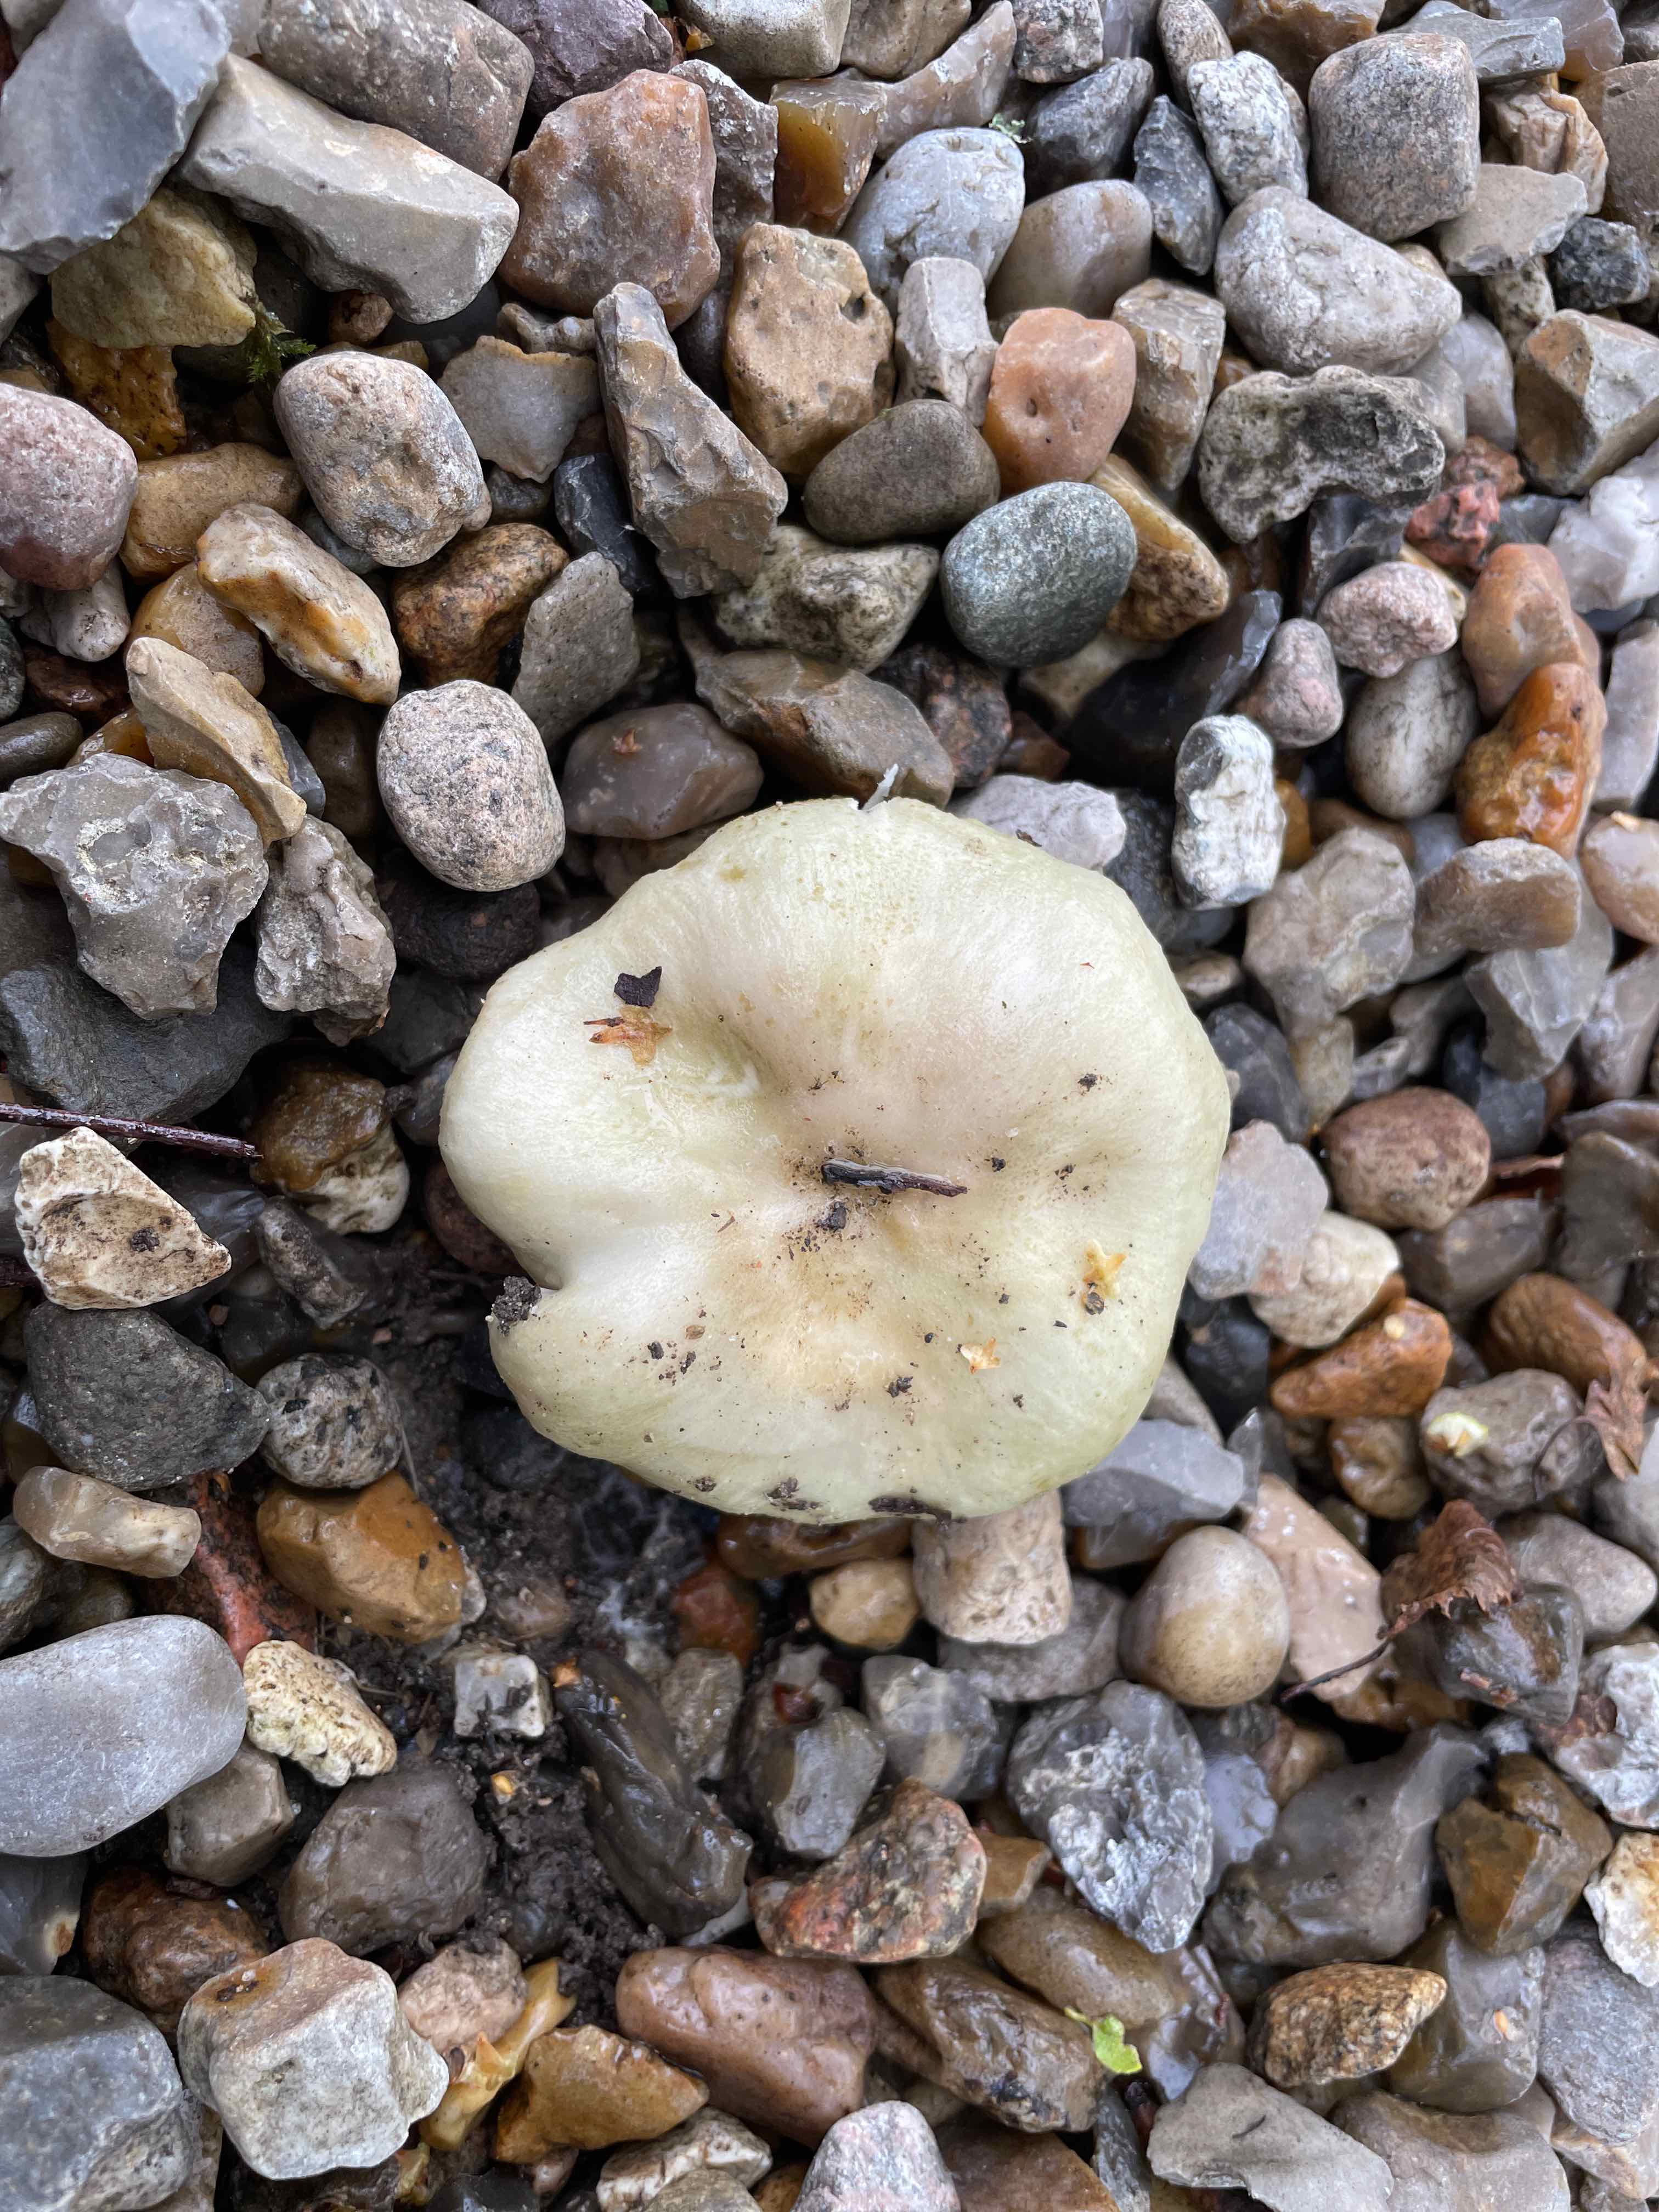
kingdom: Fungi
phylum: Basidiomycota
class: Agaricomycetes
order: Russulales
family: Russulaceae
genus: Russula
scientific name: Russula aeruginea
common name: græsgrøn skørhat
